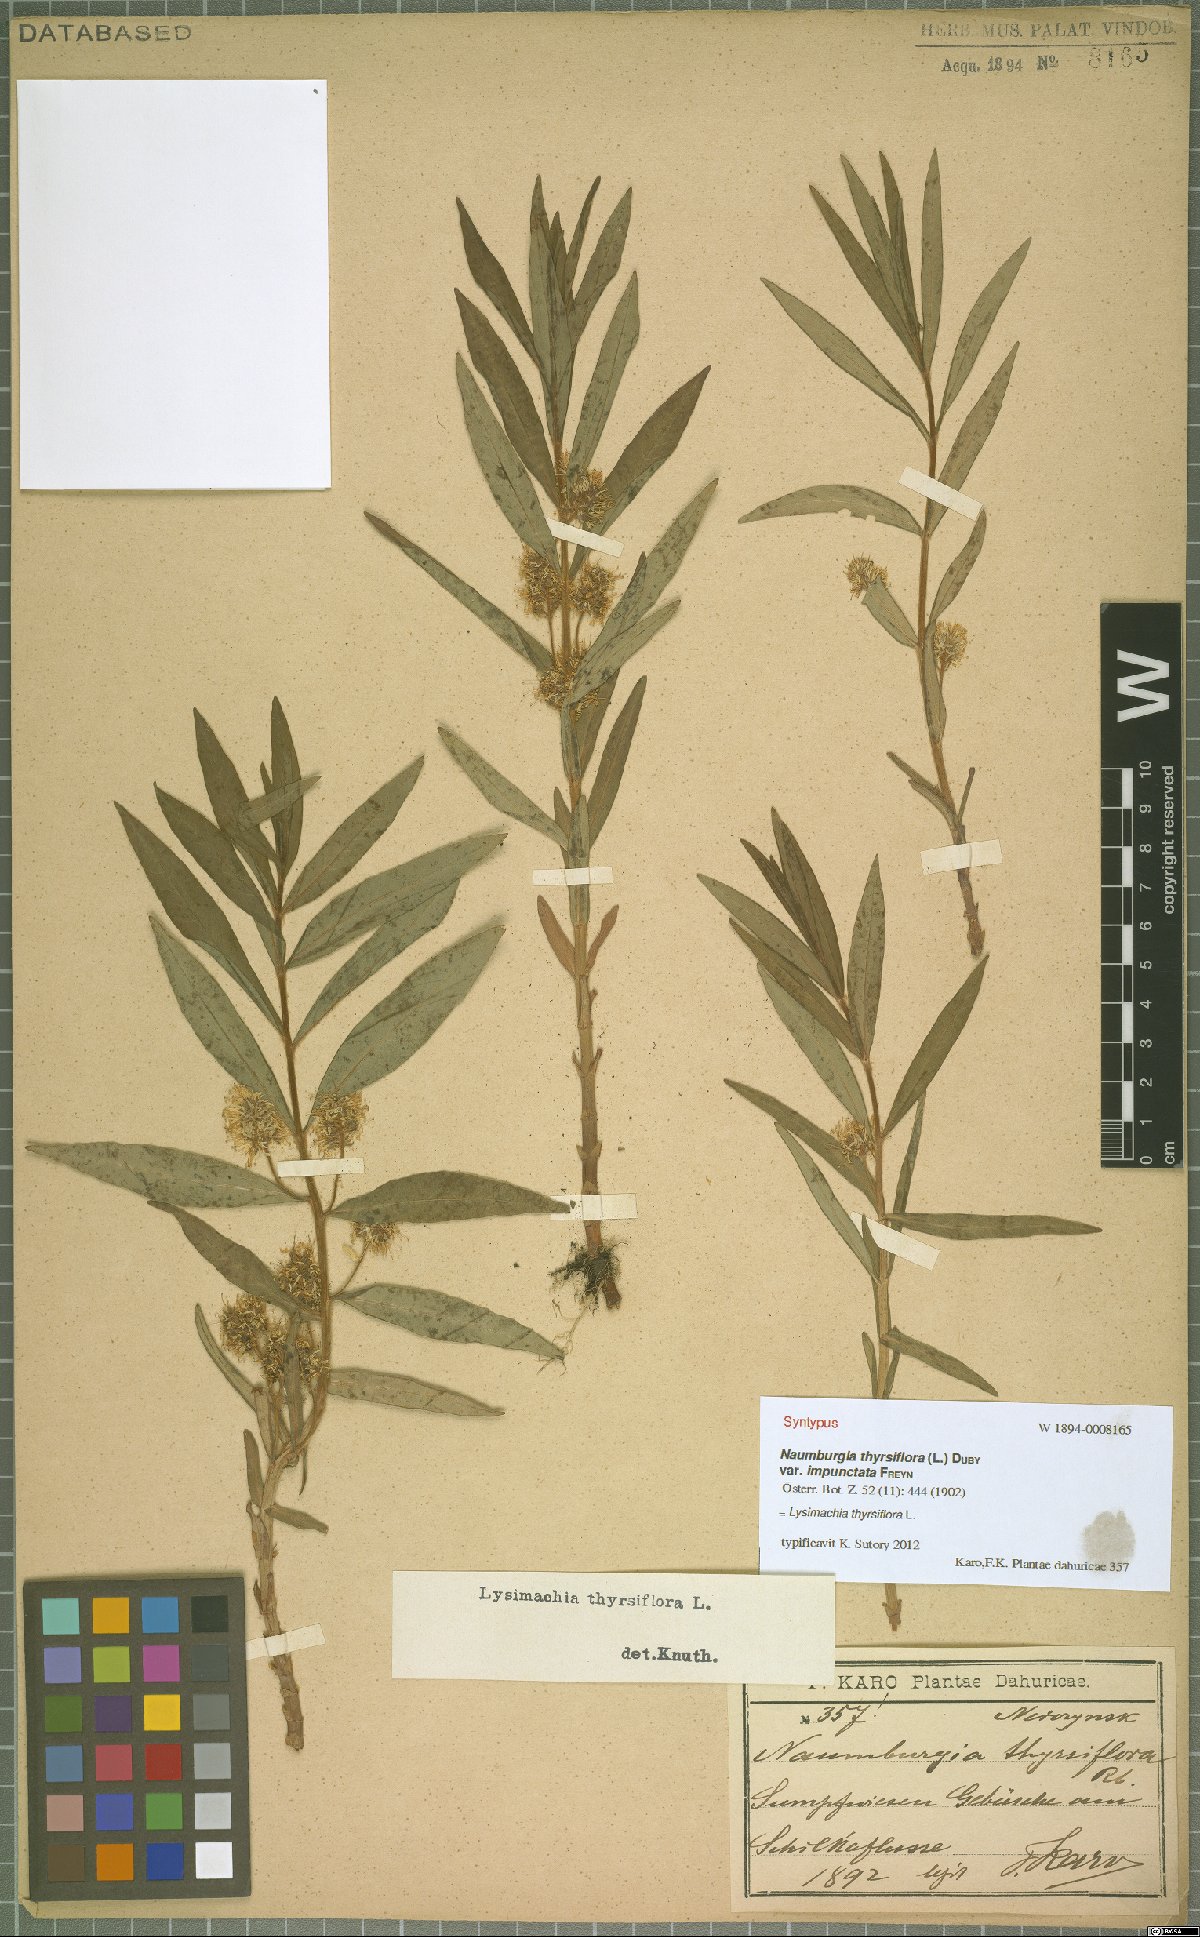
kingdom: Plantae
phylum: Tracheophyta
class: Magnoliopsida
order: Ericales
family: Primulaceae
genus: Lysimachia
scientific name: Lysimachia thyrsiflora
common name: Tufted loosestrife
